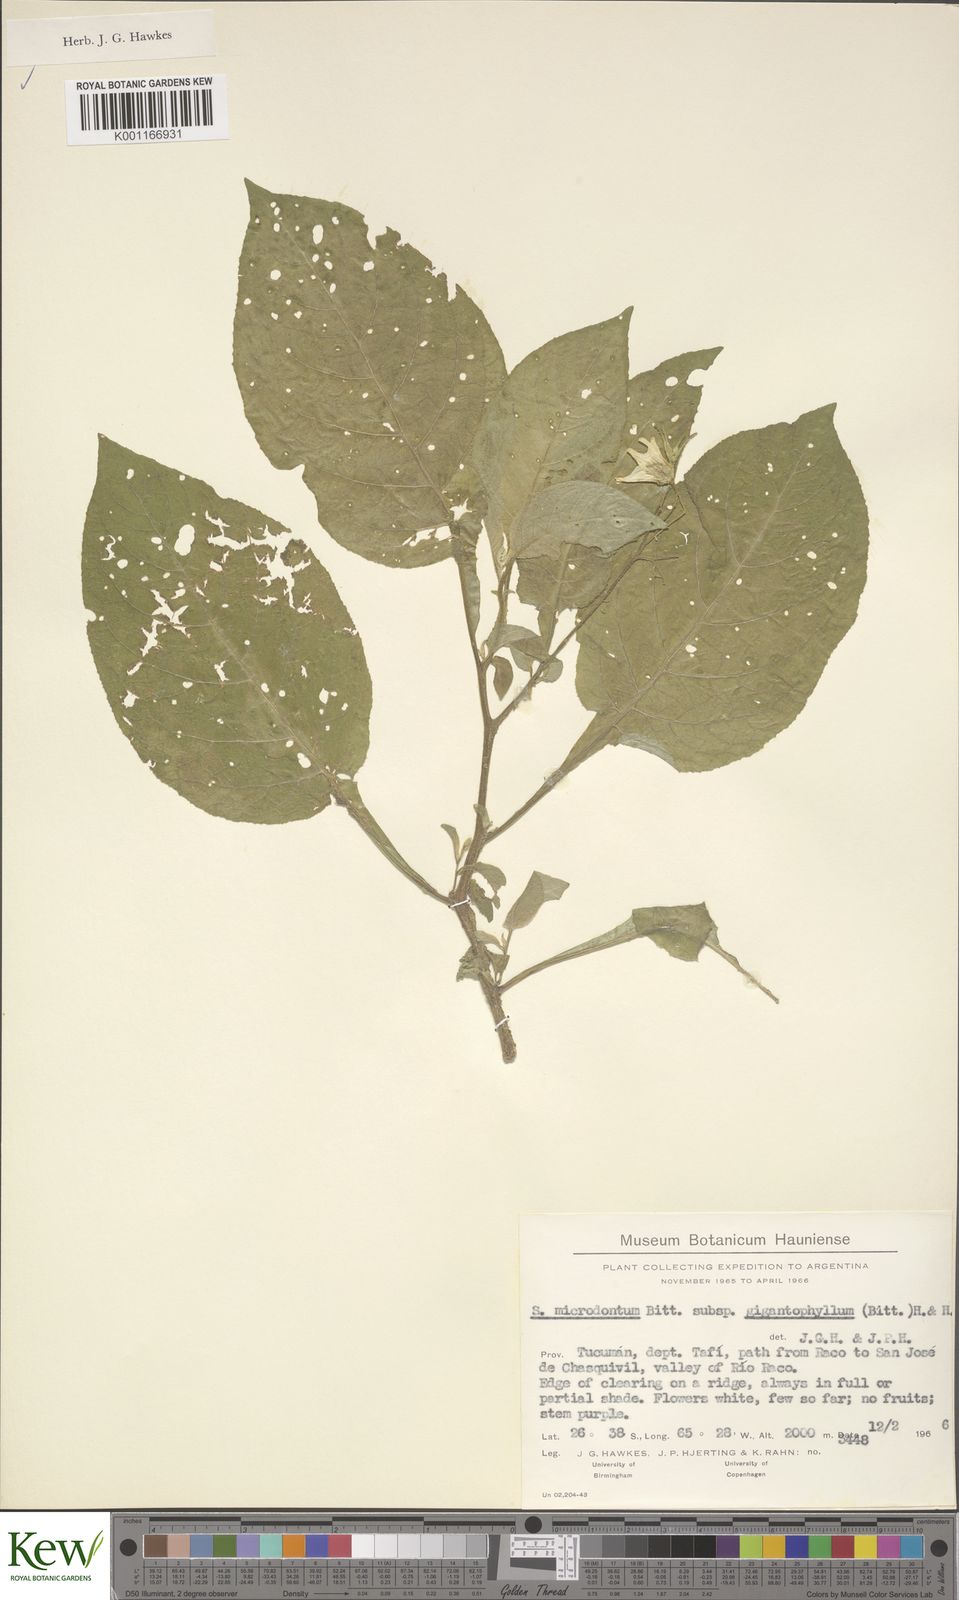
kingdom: Plantae
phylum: Tracheophyta
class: Magnoliopsida
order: Solanales
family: Solanaceae
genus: Solanum
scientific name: Solanum microdontum
